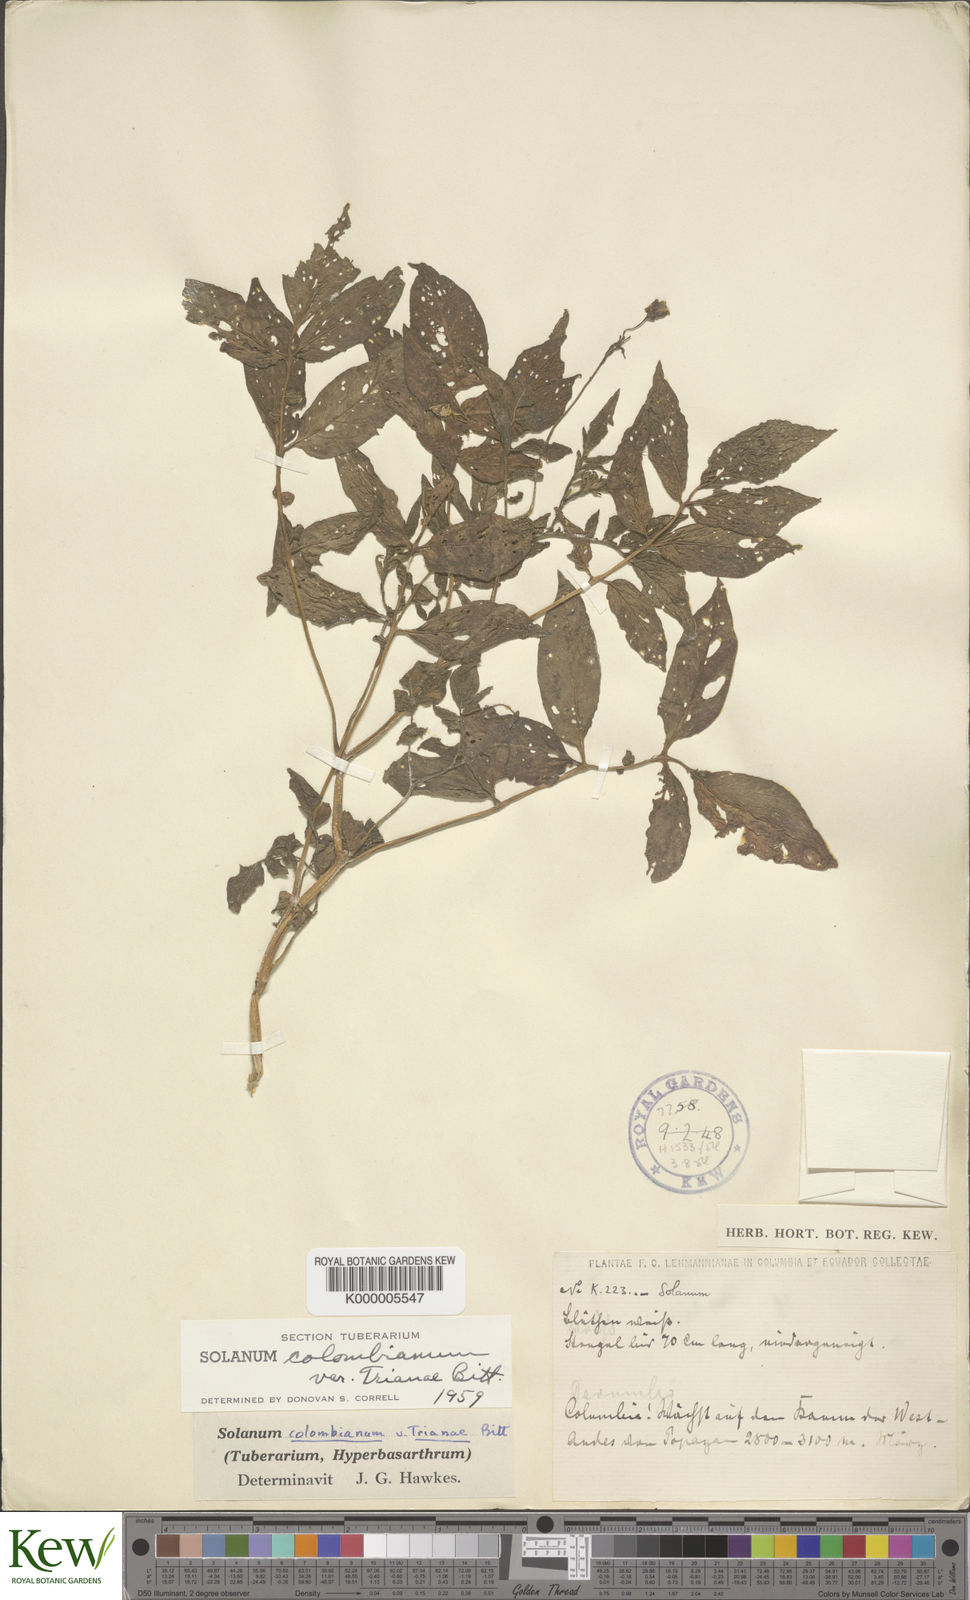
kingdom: Plantae
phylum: Tracheophyta
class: Magnoliopsida
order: Solanales
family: Solanaceae
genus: Solanum
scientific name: Solanum colombianum
